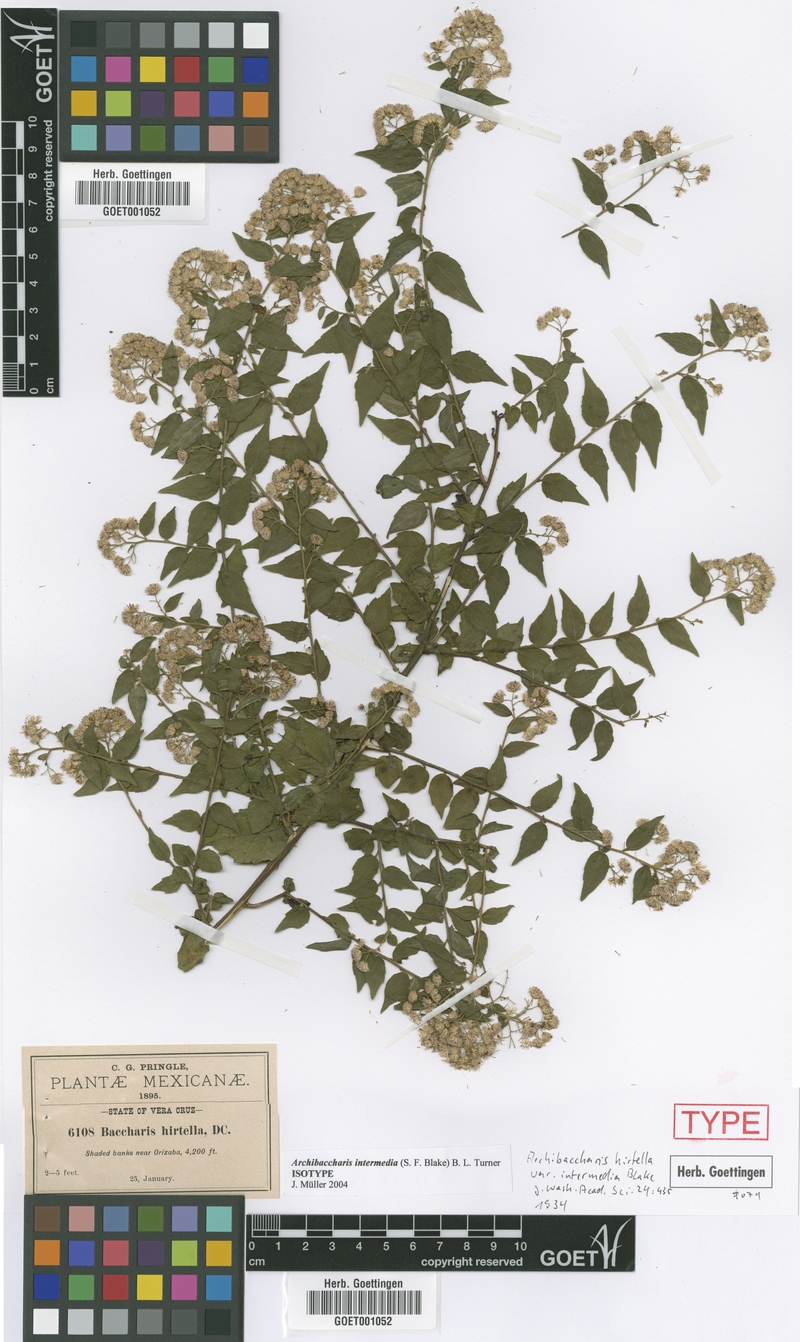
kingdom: Plantae
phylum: Tracheophyta
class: Magnoliopsida
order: Asterales
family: Asteraceae
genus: Archibaccharis
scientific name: Archibaccharis intermedia
